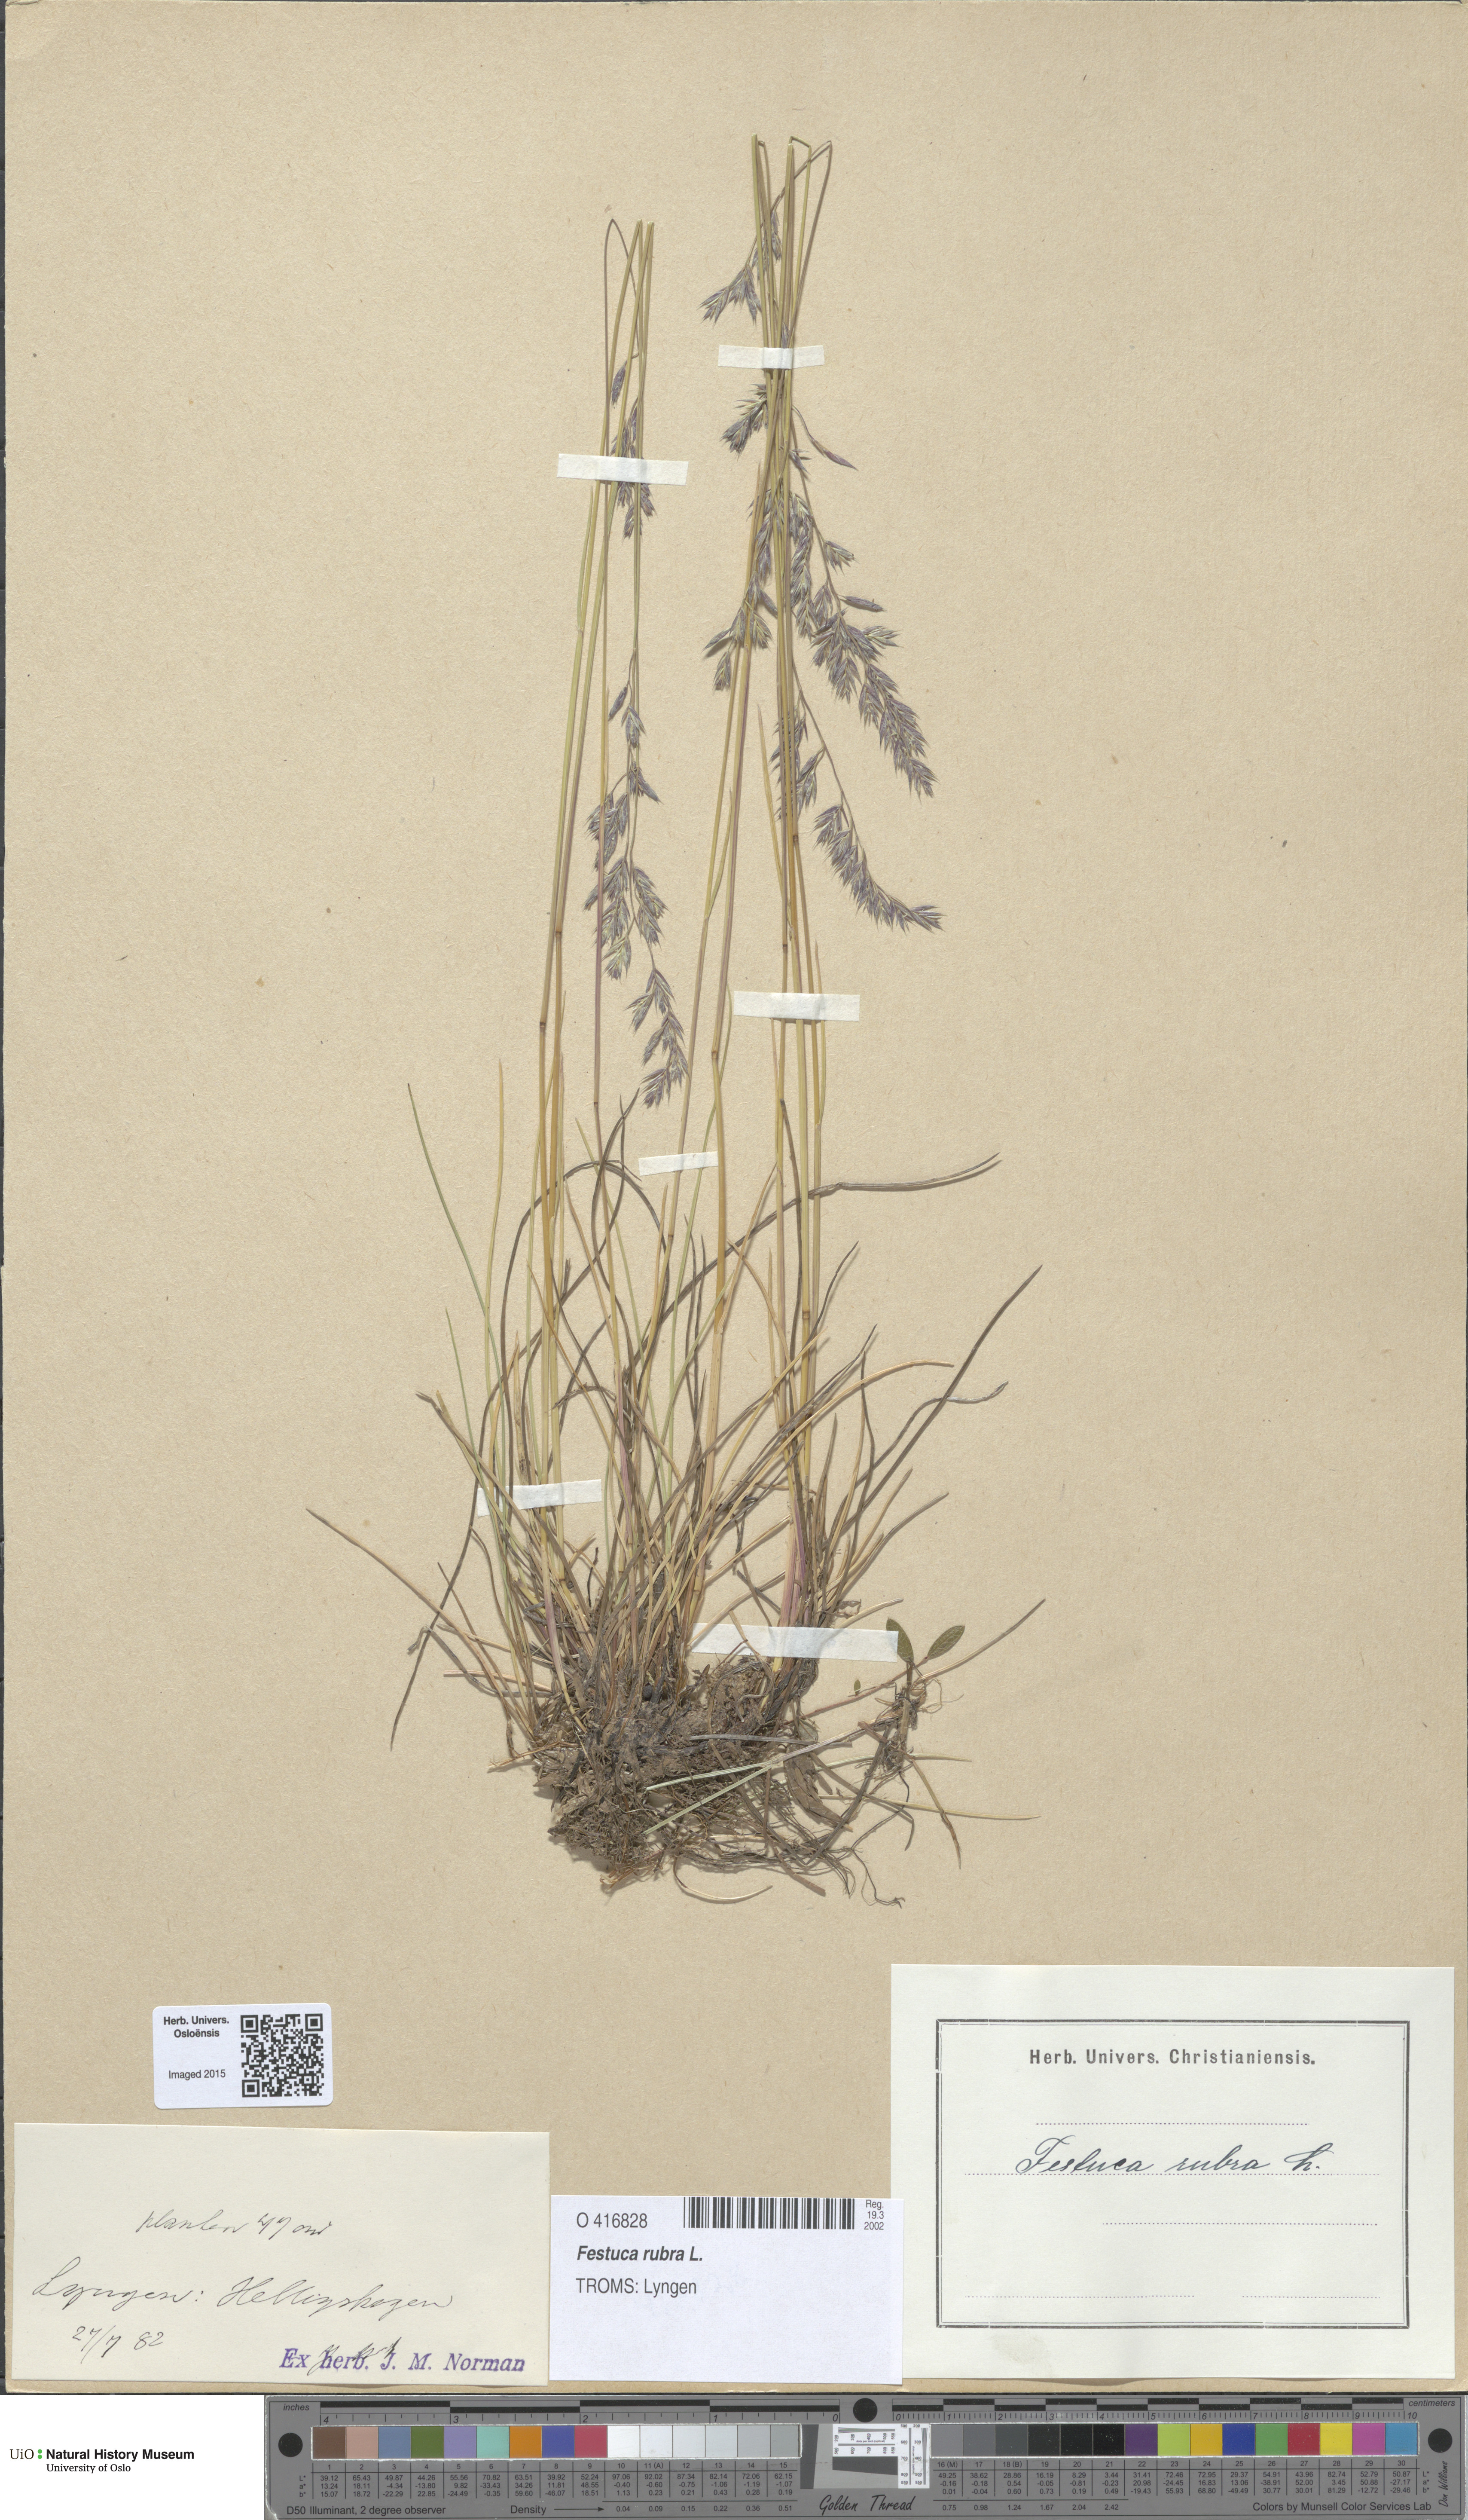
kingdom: Plantae
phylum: Tracheophyta
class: Liliopsida
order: Poales
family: Poaceae
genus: Festuca
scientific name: Festuca rubra
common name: Red fescue
